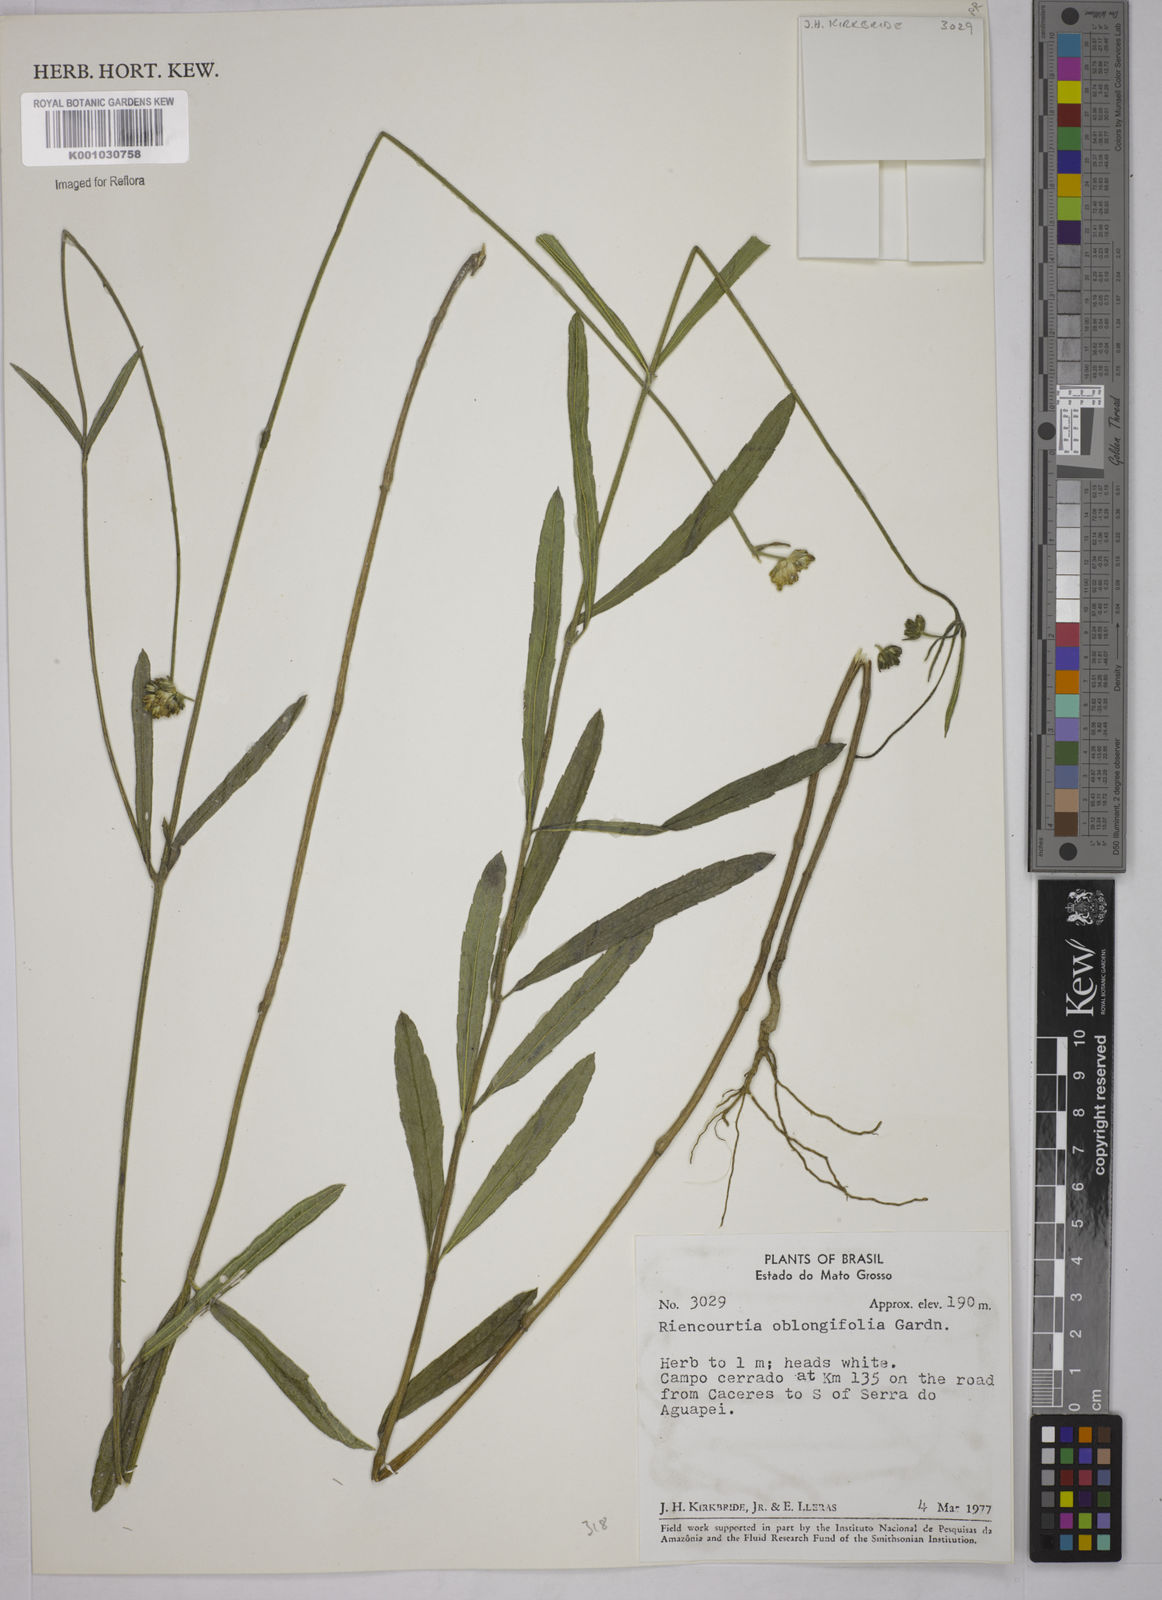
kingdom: Plantae
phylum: Tracheophyta
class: Magnoliopsida
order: Asterales
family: Asteraceae
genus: Riencourtia
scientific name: Riencourtia oblongifolia
